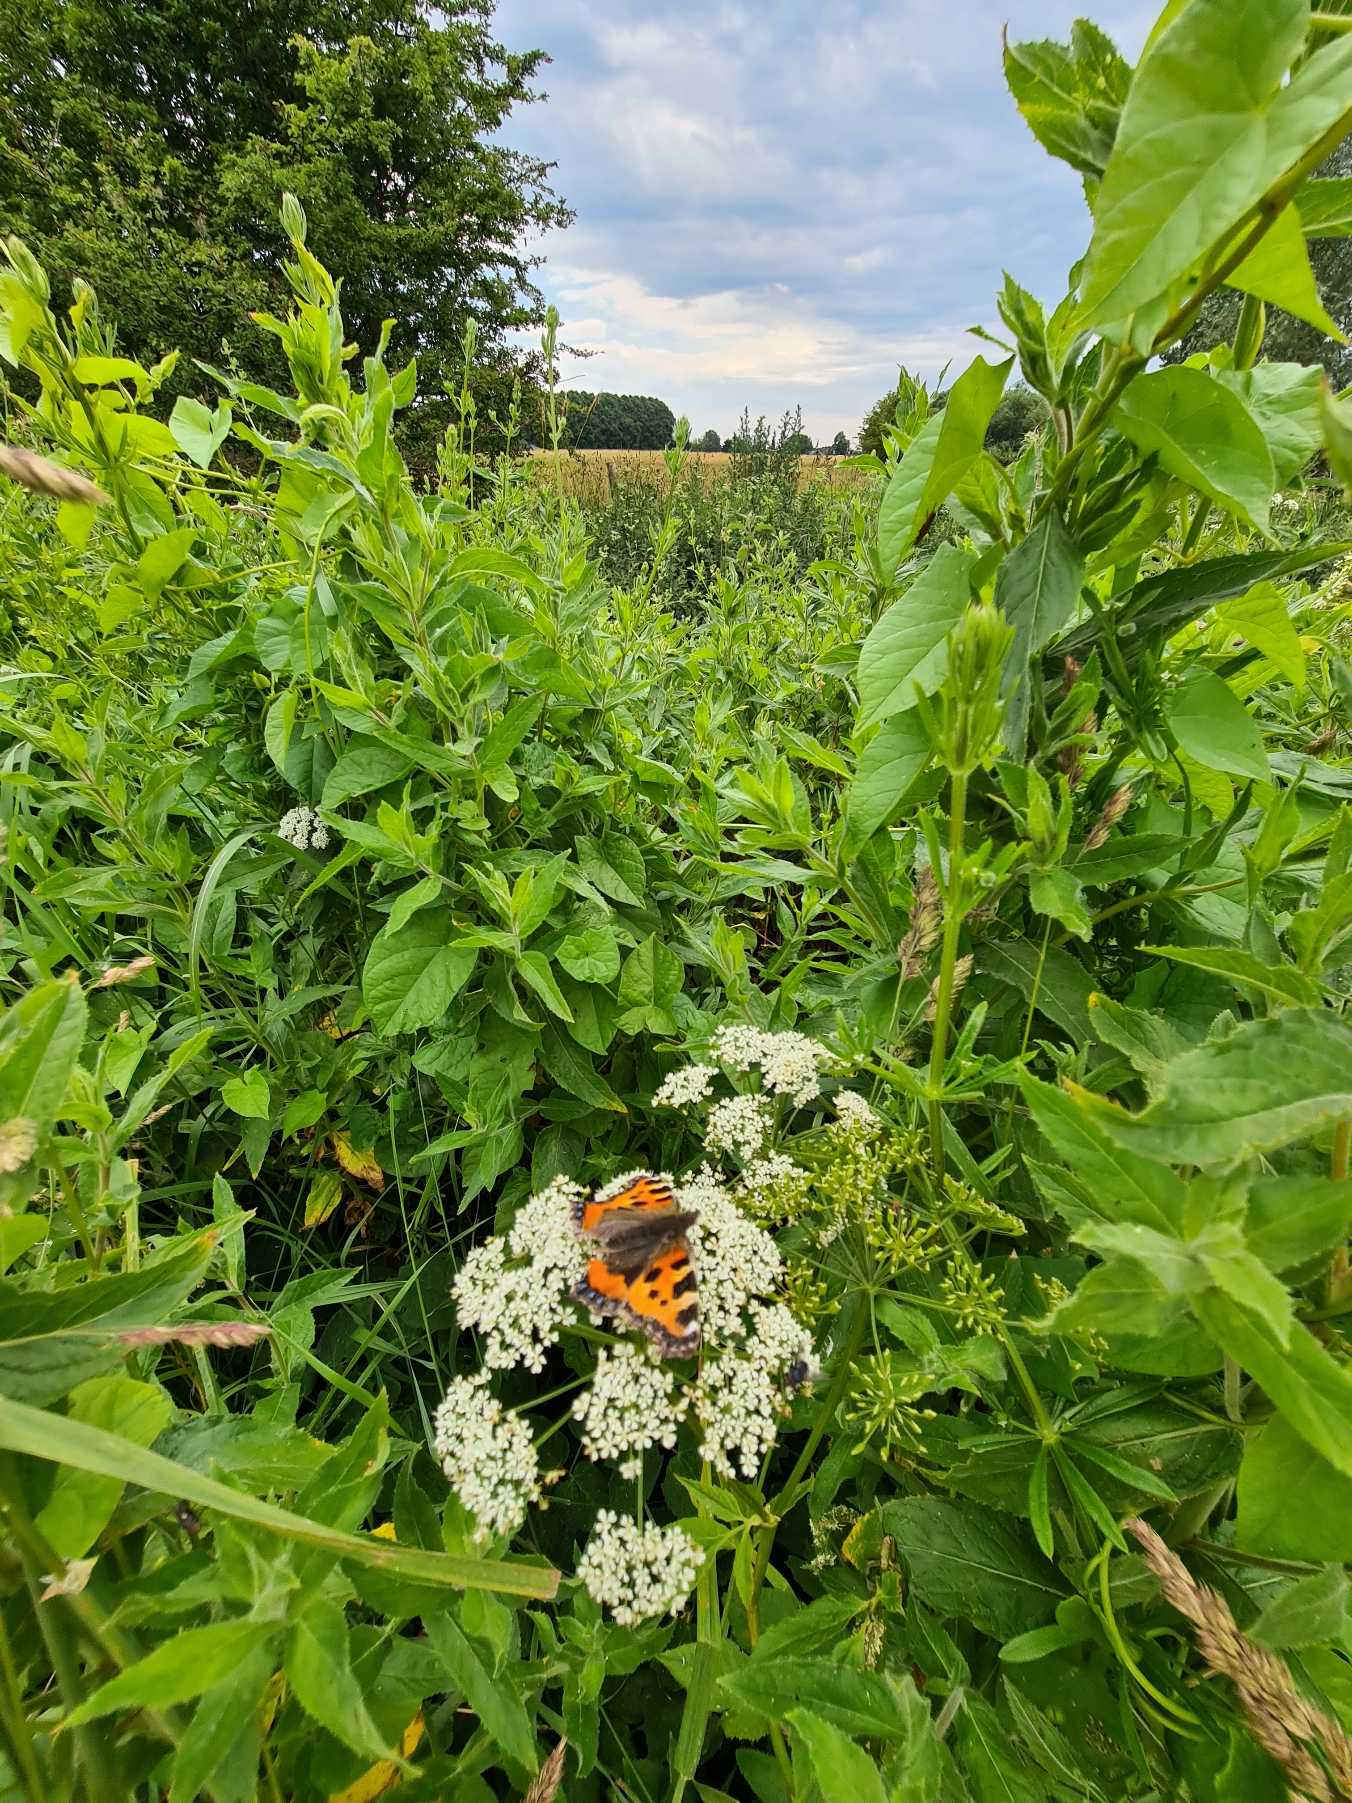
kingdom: Animalia
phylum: Arthropoda
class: Insecta
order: Lepidoptera
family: Nymphalidae
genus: Aglais
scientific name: Aglais urticae
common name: Nældens takvinge
